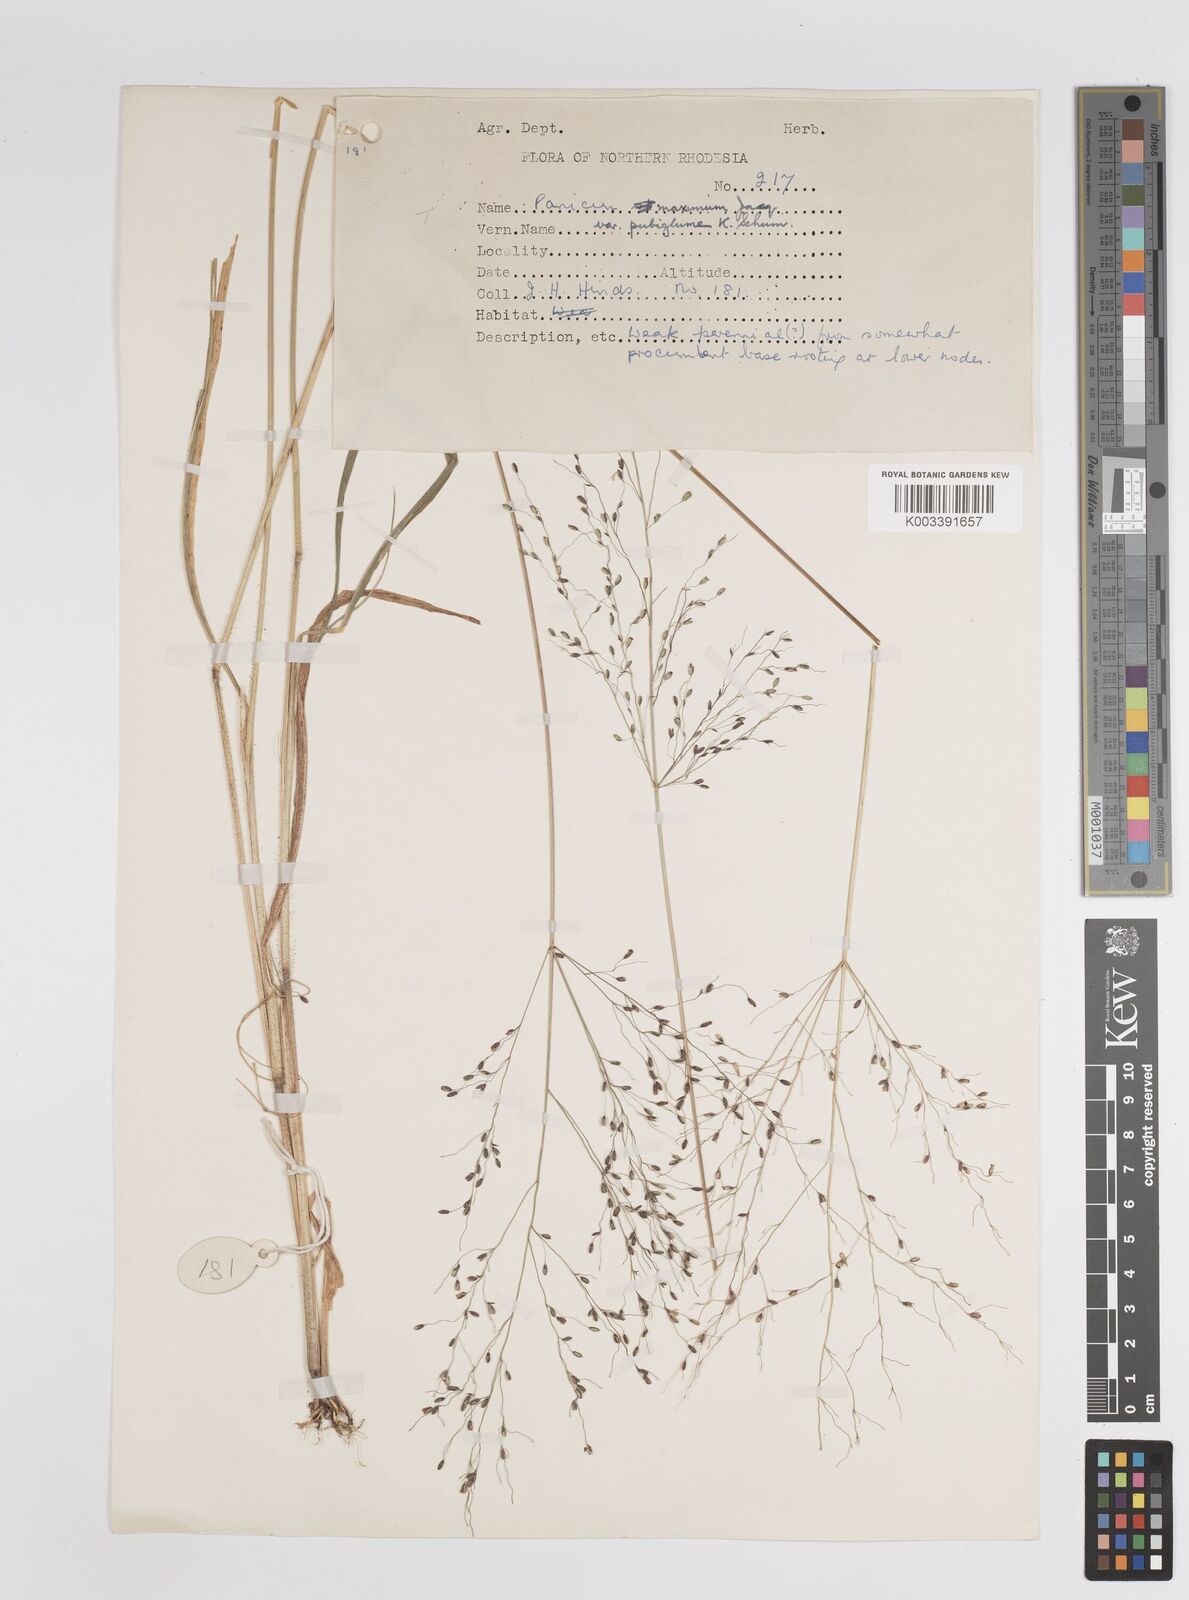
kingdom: Plantae
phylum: Tracheophyta
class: Liliopsida
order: Poales
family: Poaceae
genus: Megathyrsus
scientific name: Megathyrsus maximus
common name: Guineagrass
